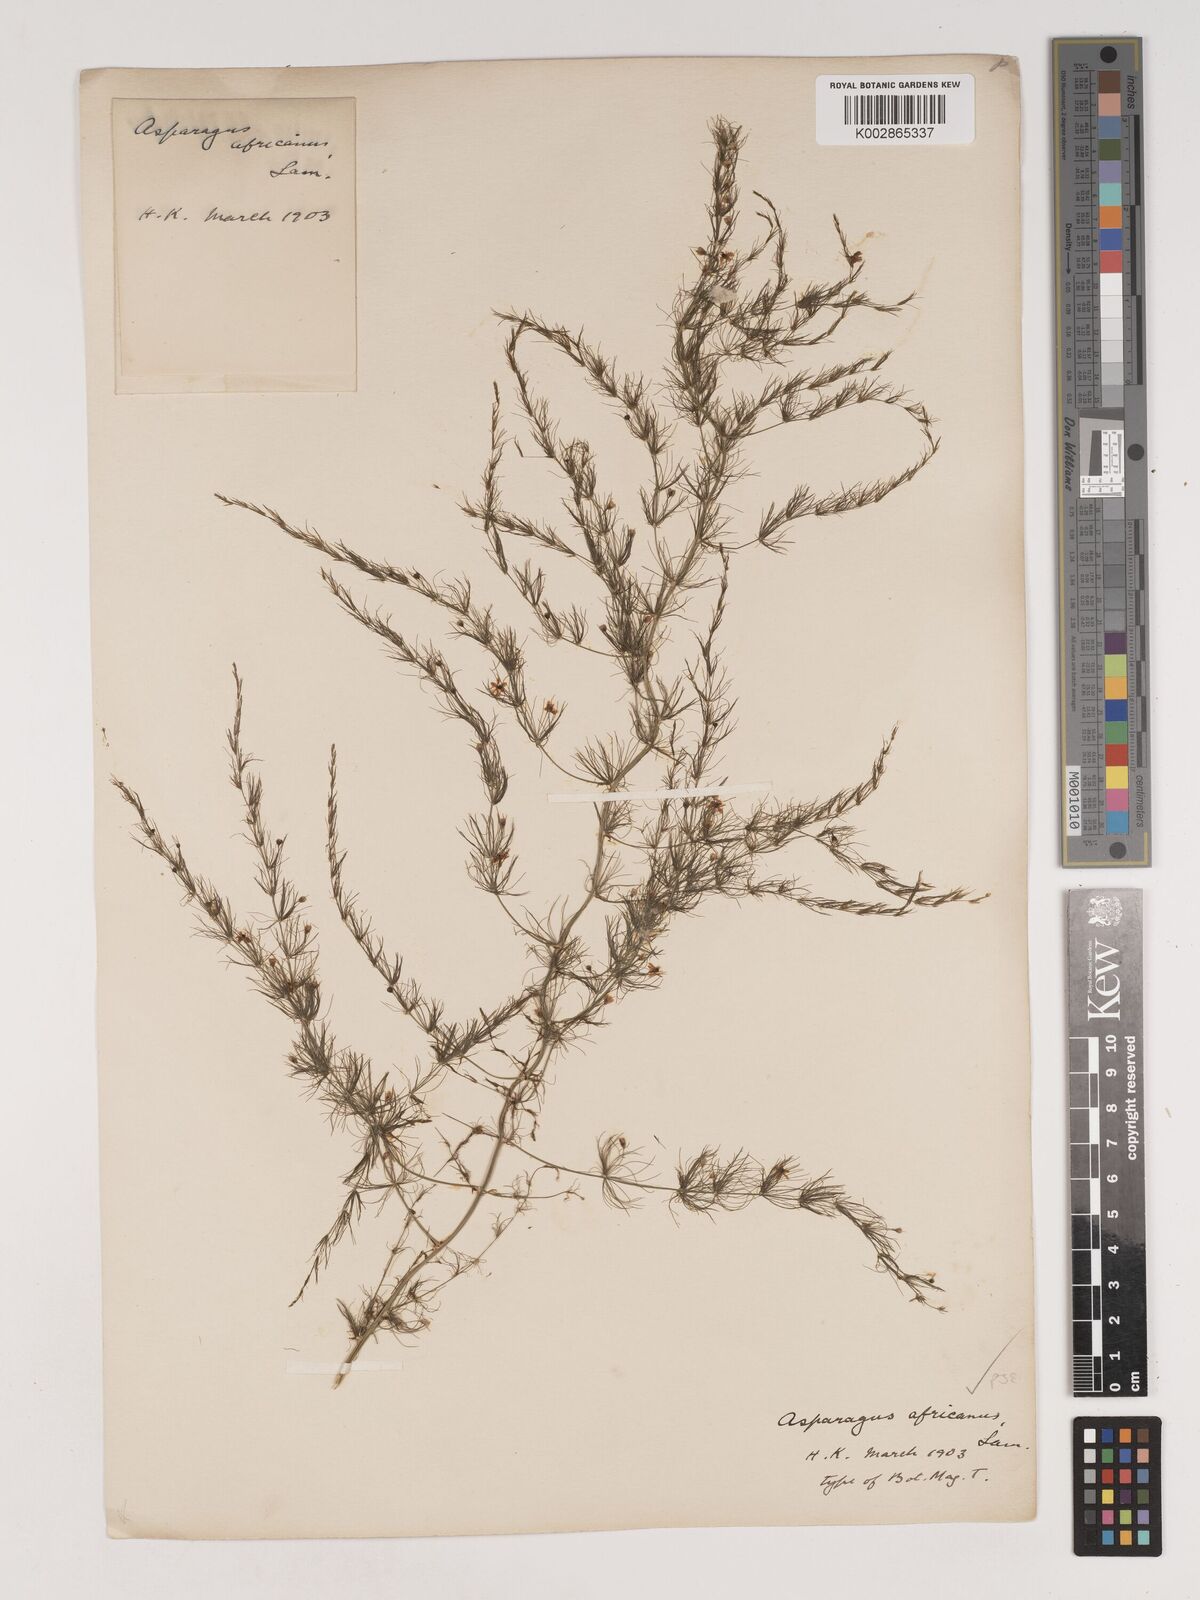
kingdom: Plantae
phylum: Tracheophyta
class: Liliopsida
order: Asparagales
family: Asparagaceae
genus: Asparagus
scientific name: Asparagus
